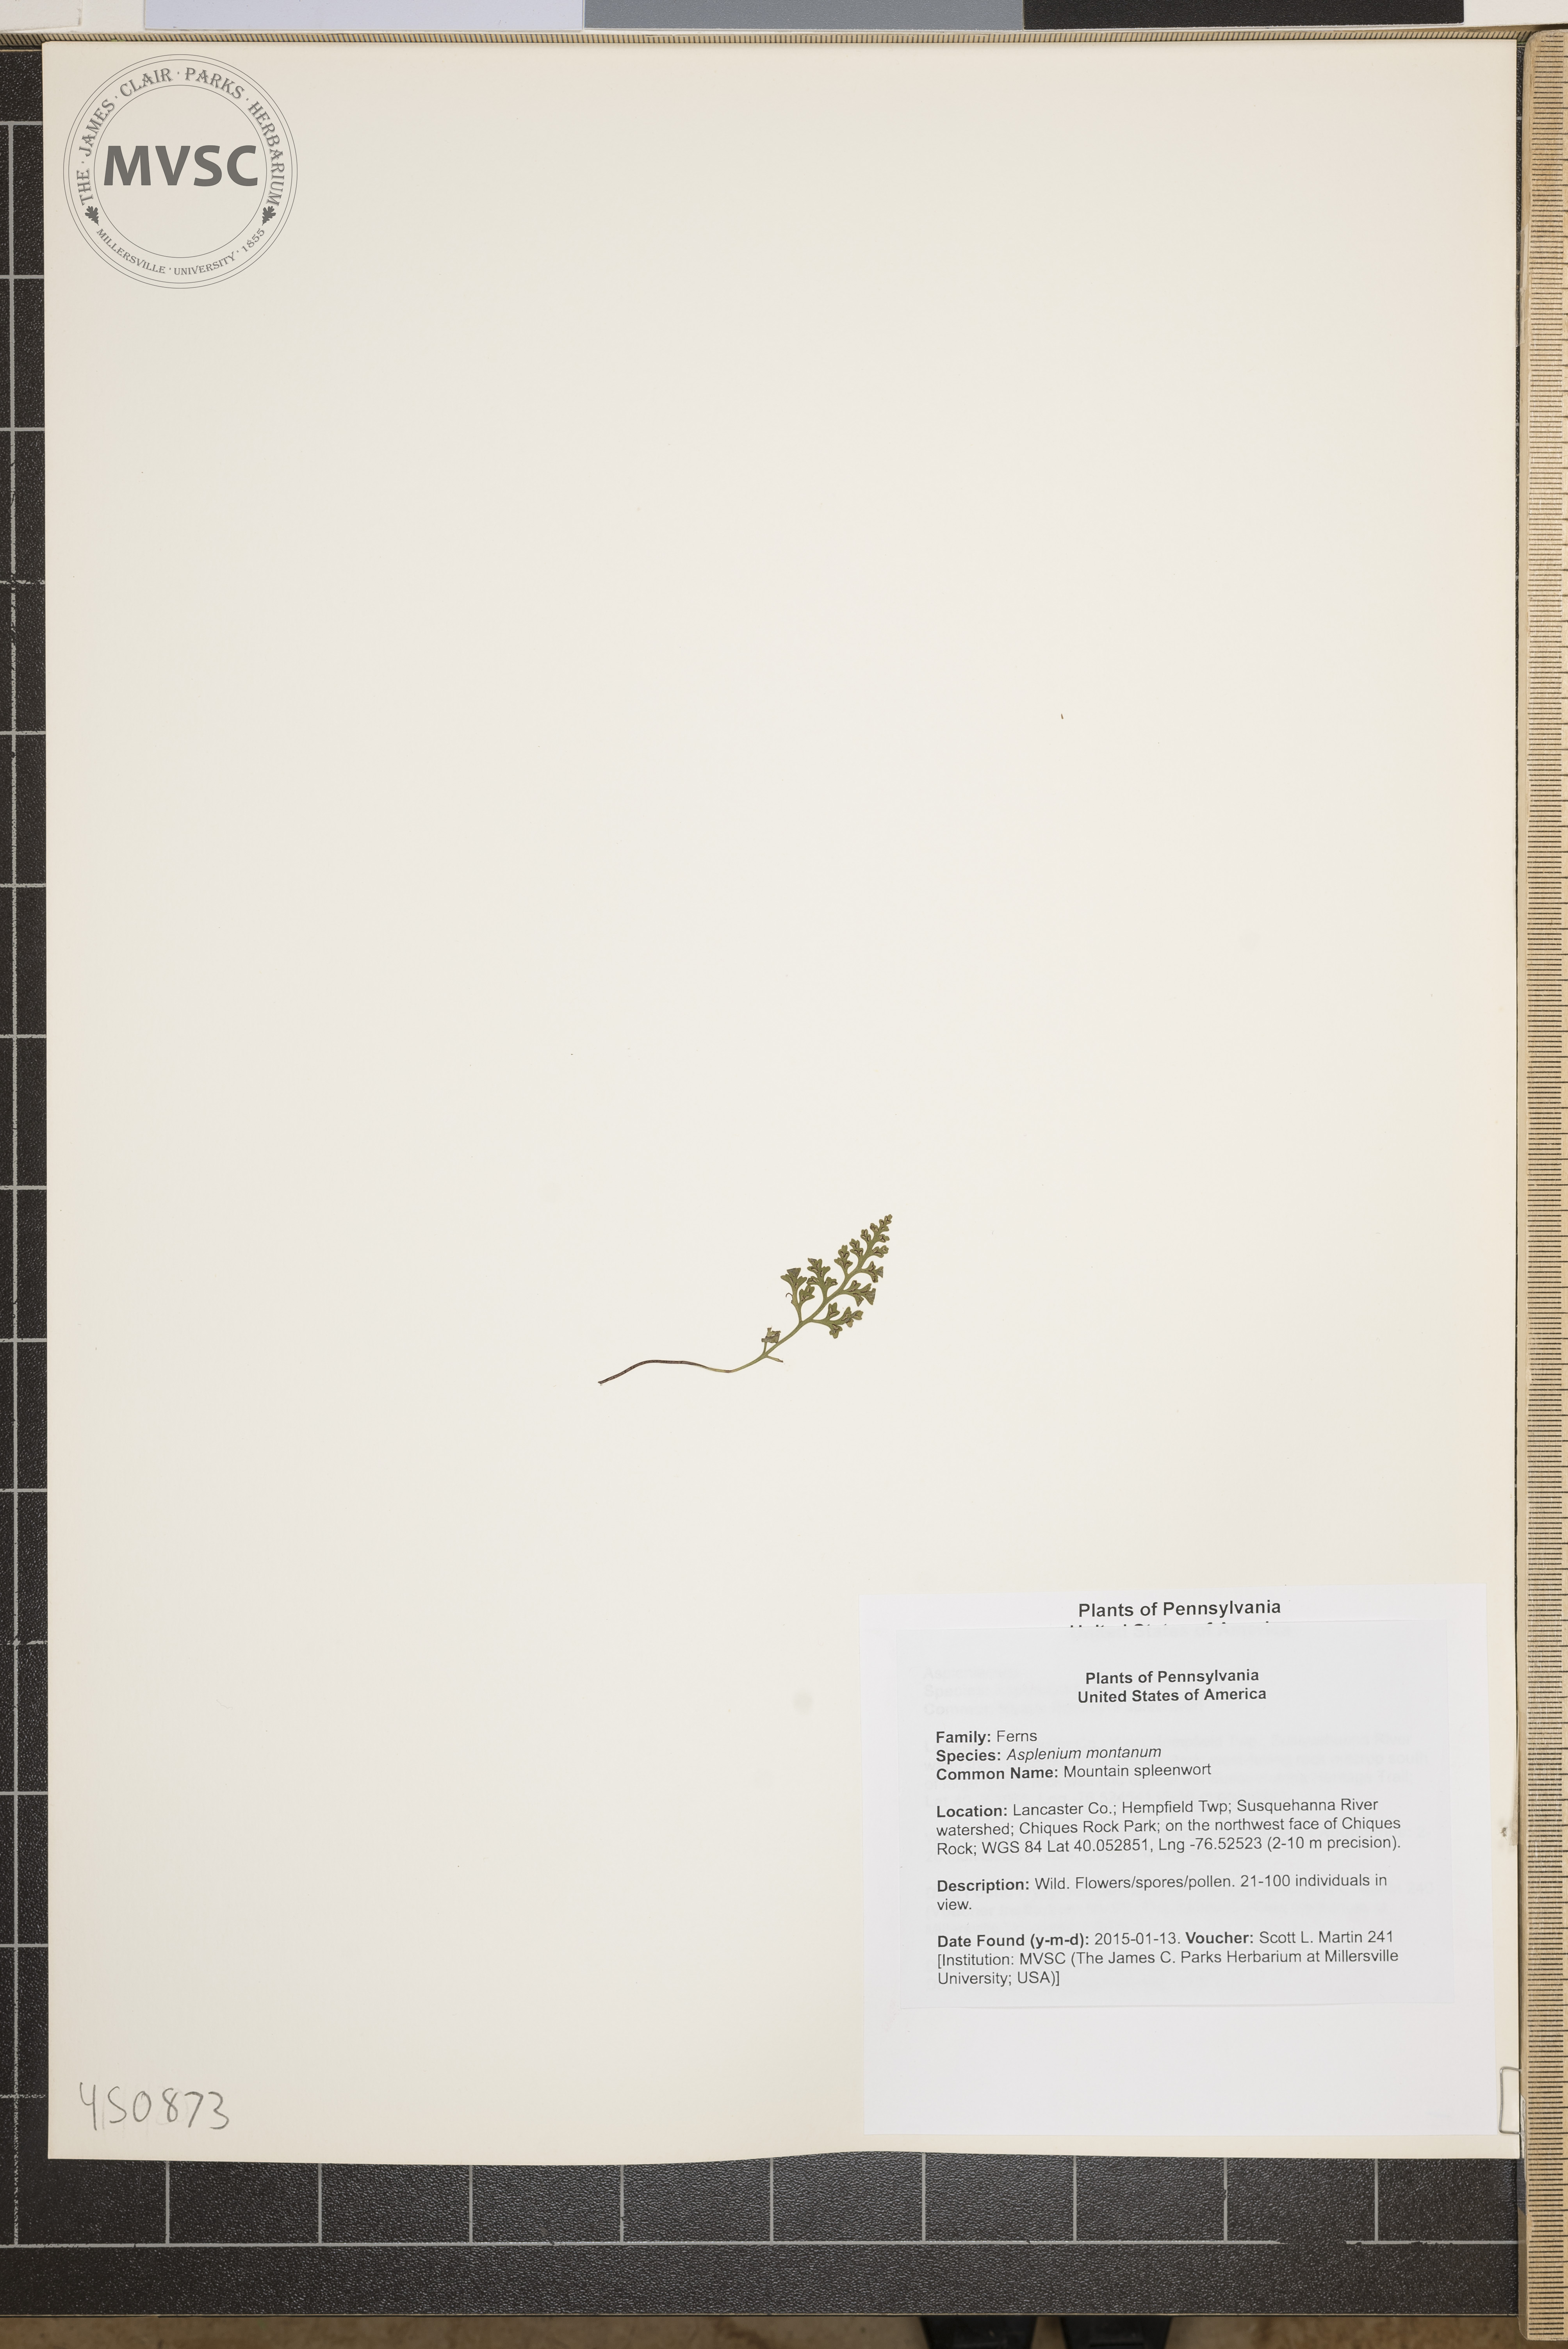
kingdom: Plantae
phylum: Tracheophyta
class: Polypodiopsida
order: Polypodiales
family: Aspleniaceae
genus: Asplenium
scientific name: Asplenium montanum
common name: Mountain spleenwort
